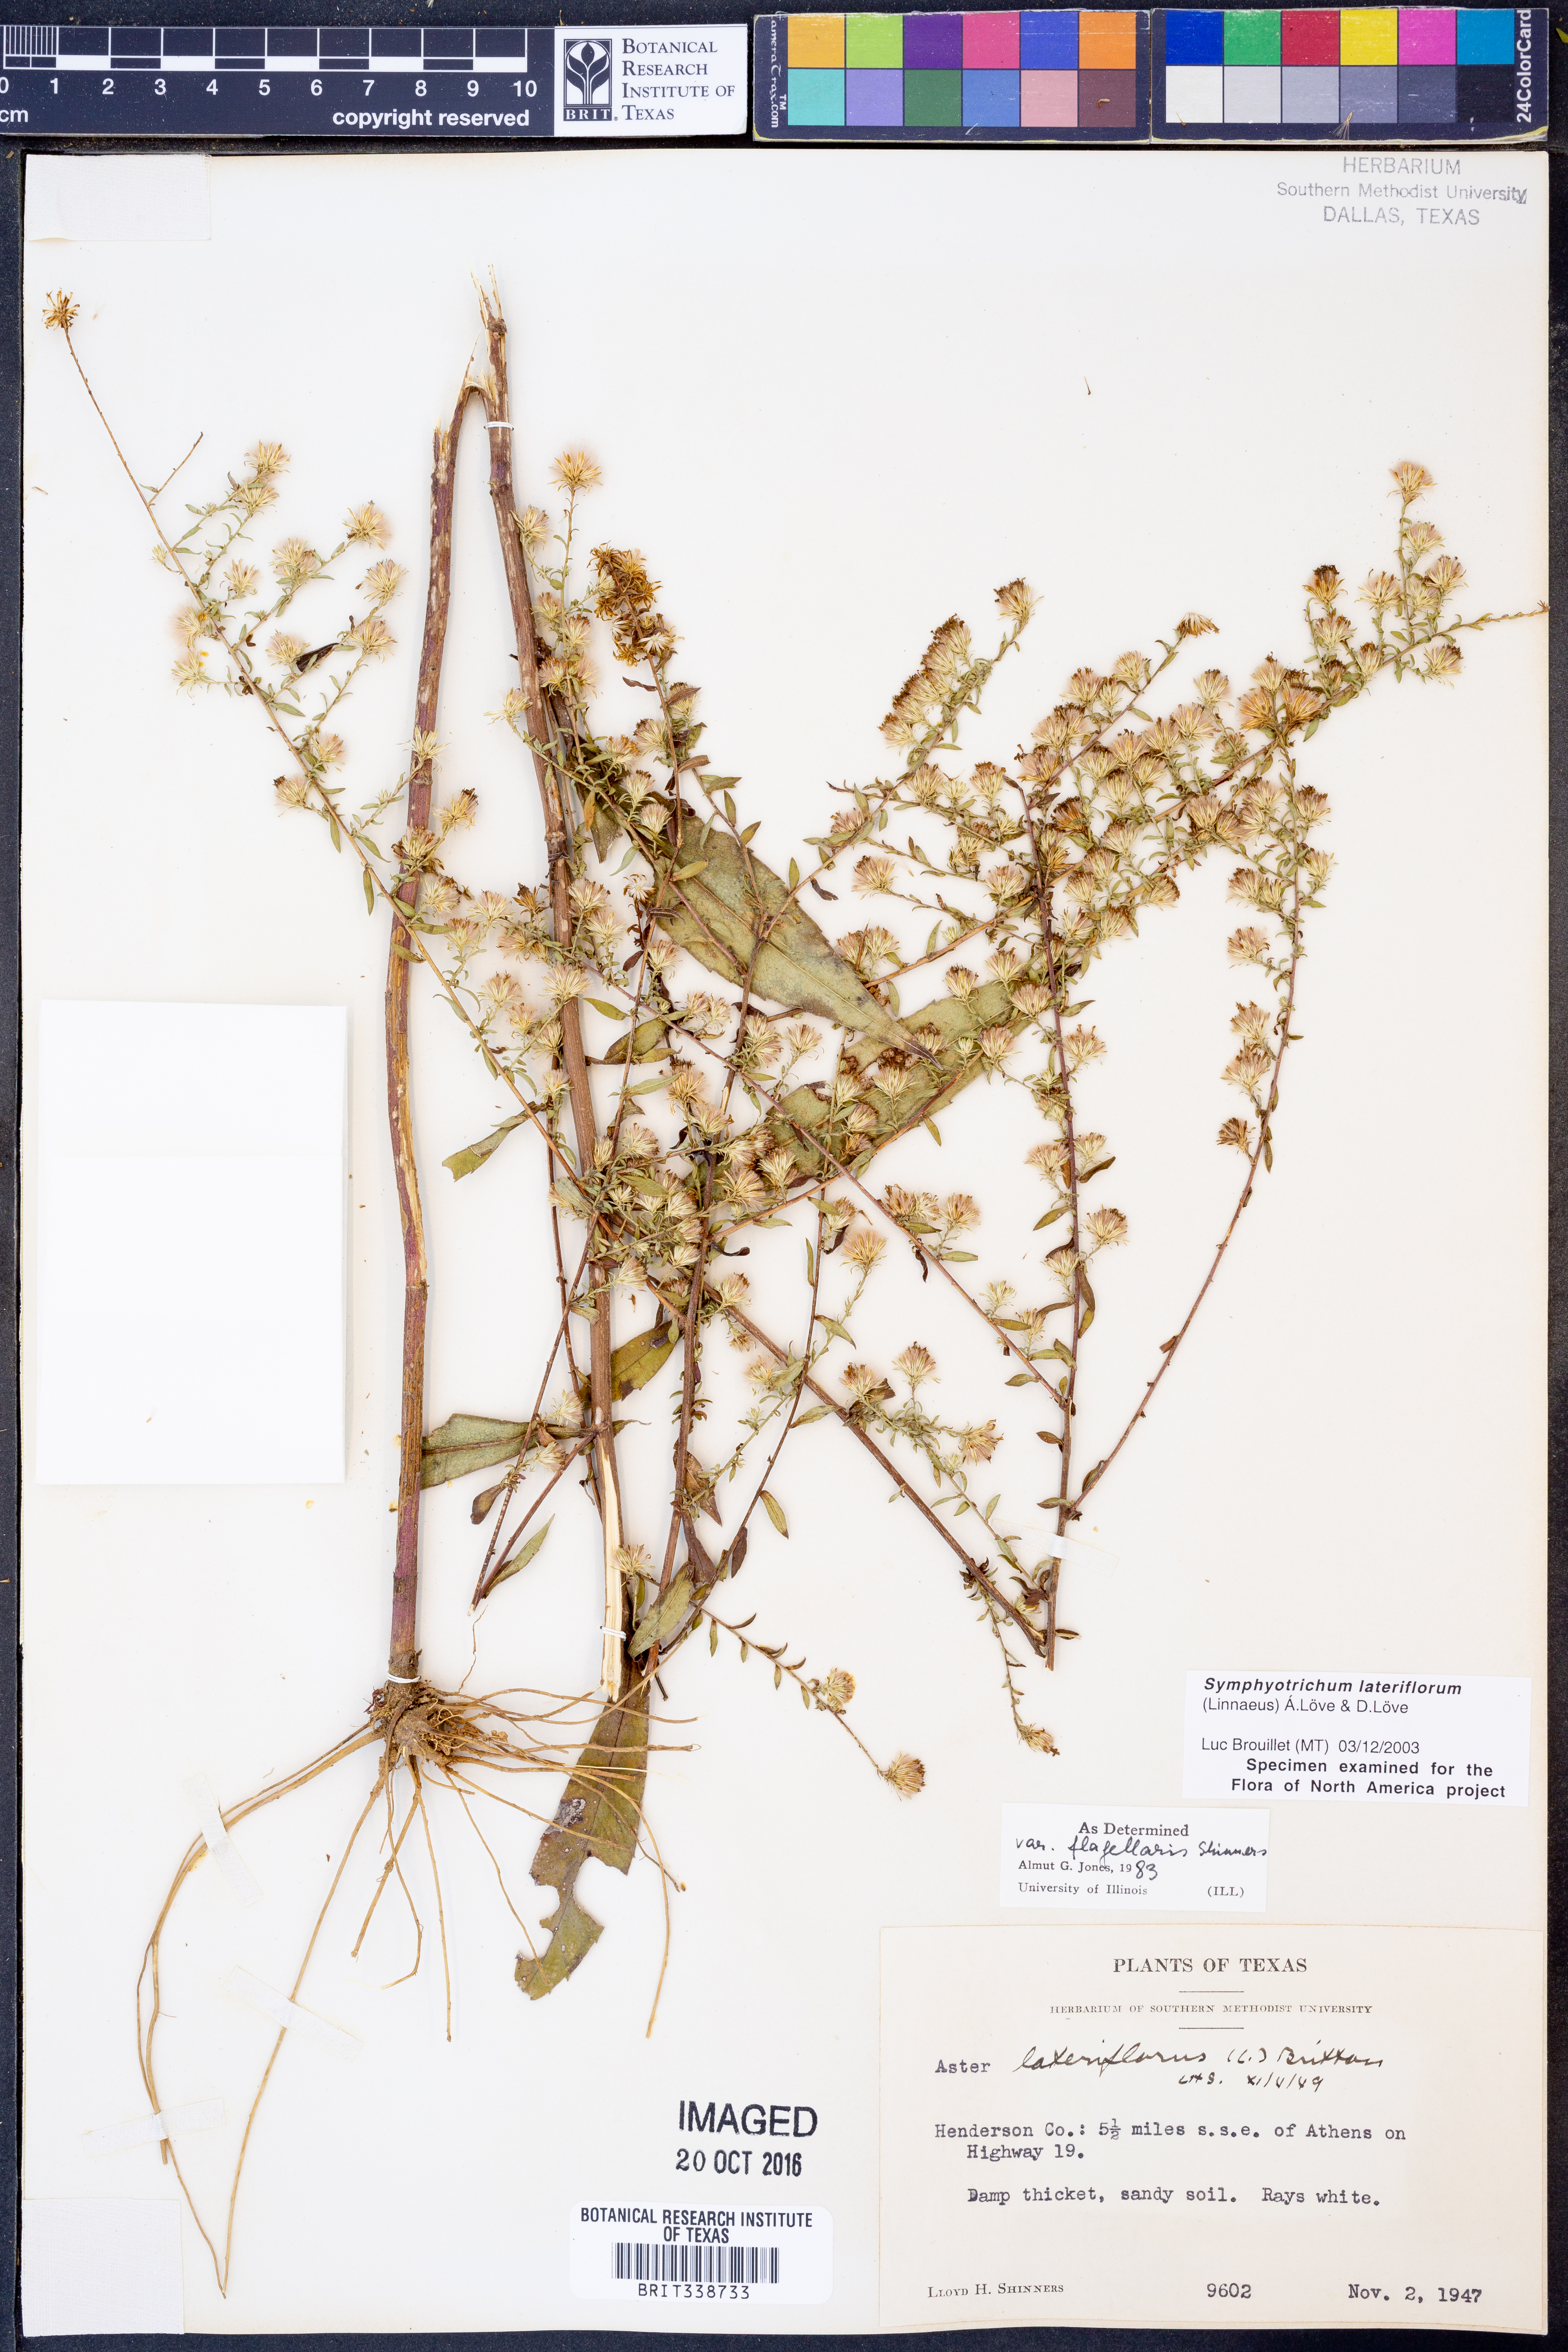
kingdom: Plantae
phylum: Tracheophyta
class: Magnoliopsida
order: Asterales
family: Asteraceae
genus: Symphyotrichum
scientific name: Symphyotrichum lateriflorum
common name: Calico aster
